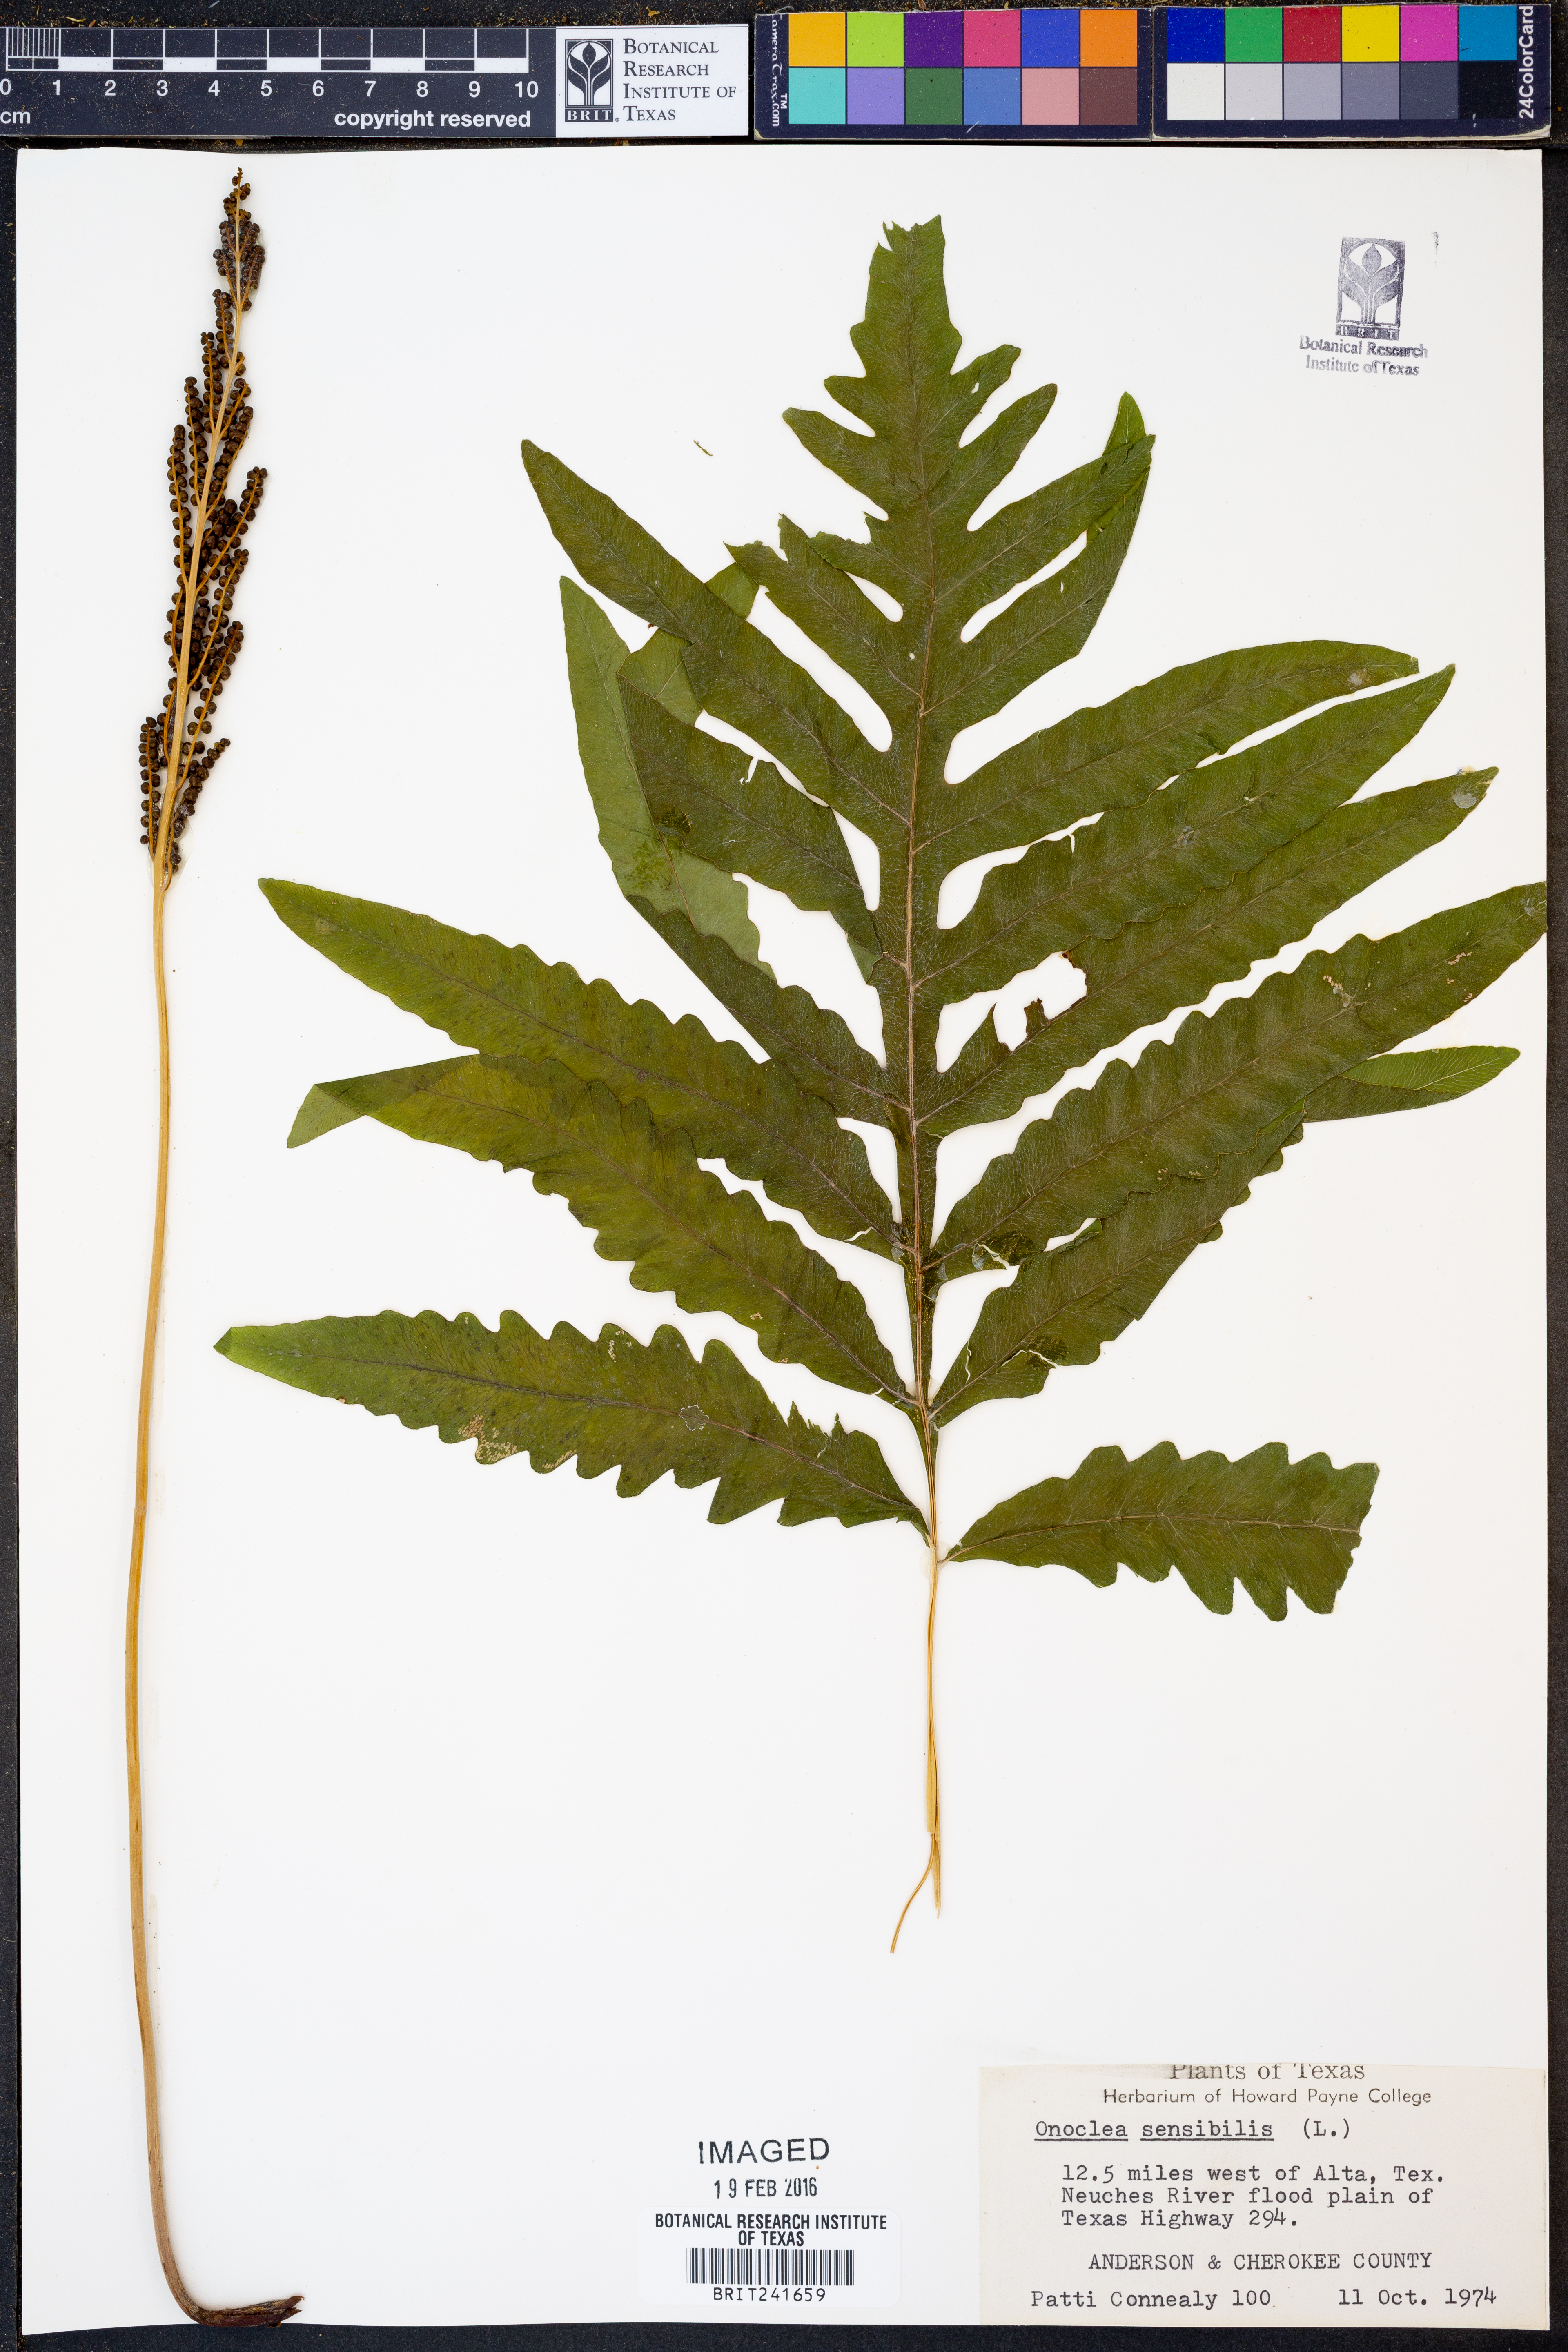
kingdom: Plantae
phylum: Tracheophyta
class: Polypodiopsida
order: Polypodiales
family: Onocleaceae
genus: Onoclea
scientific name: Onoclea sensibilis
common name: Sensitive fern
